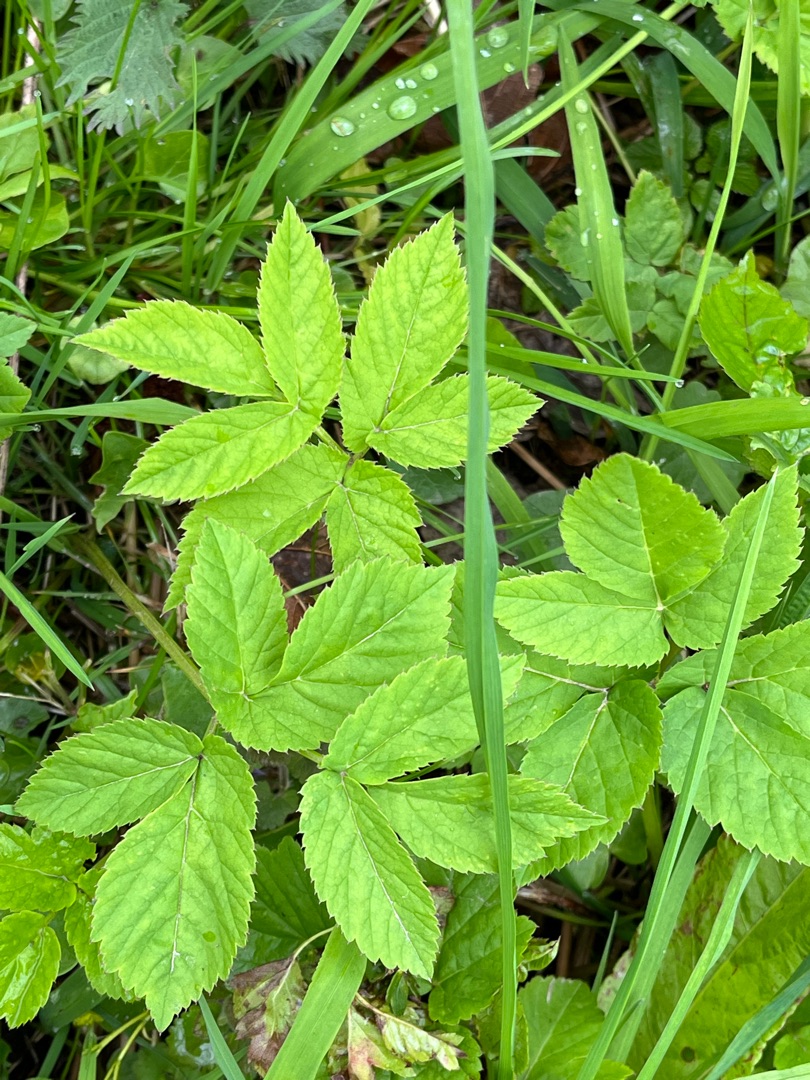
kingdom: Plantae
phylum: Tracheophyta
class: Magnoliopsida
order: Apiales
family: Apiaceae
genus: Aegopodium
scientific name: Aegopodium podagraria
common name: Skvalderkål
